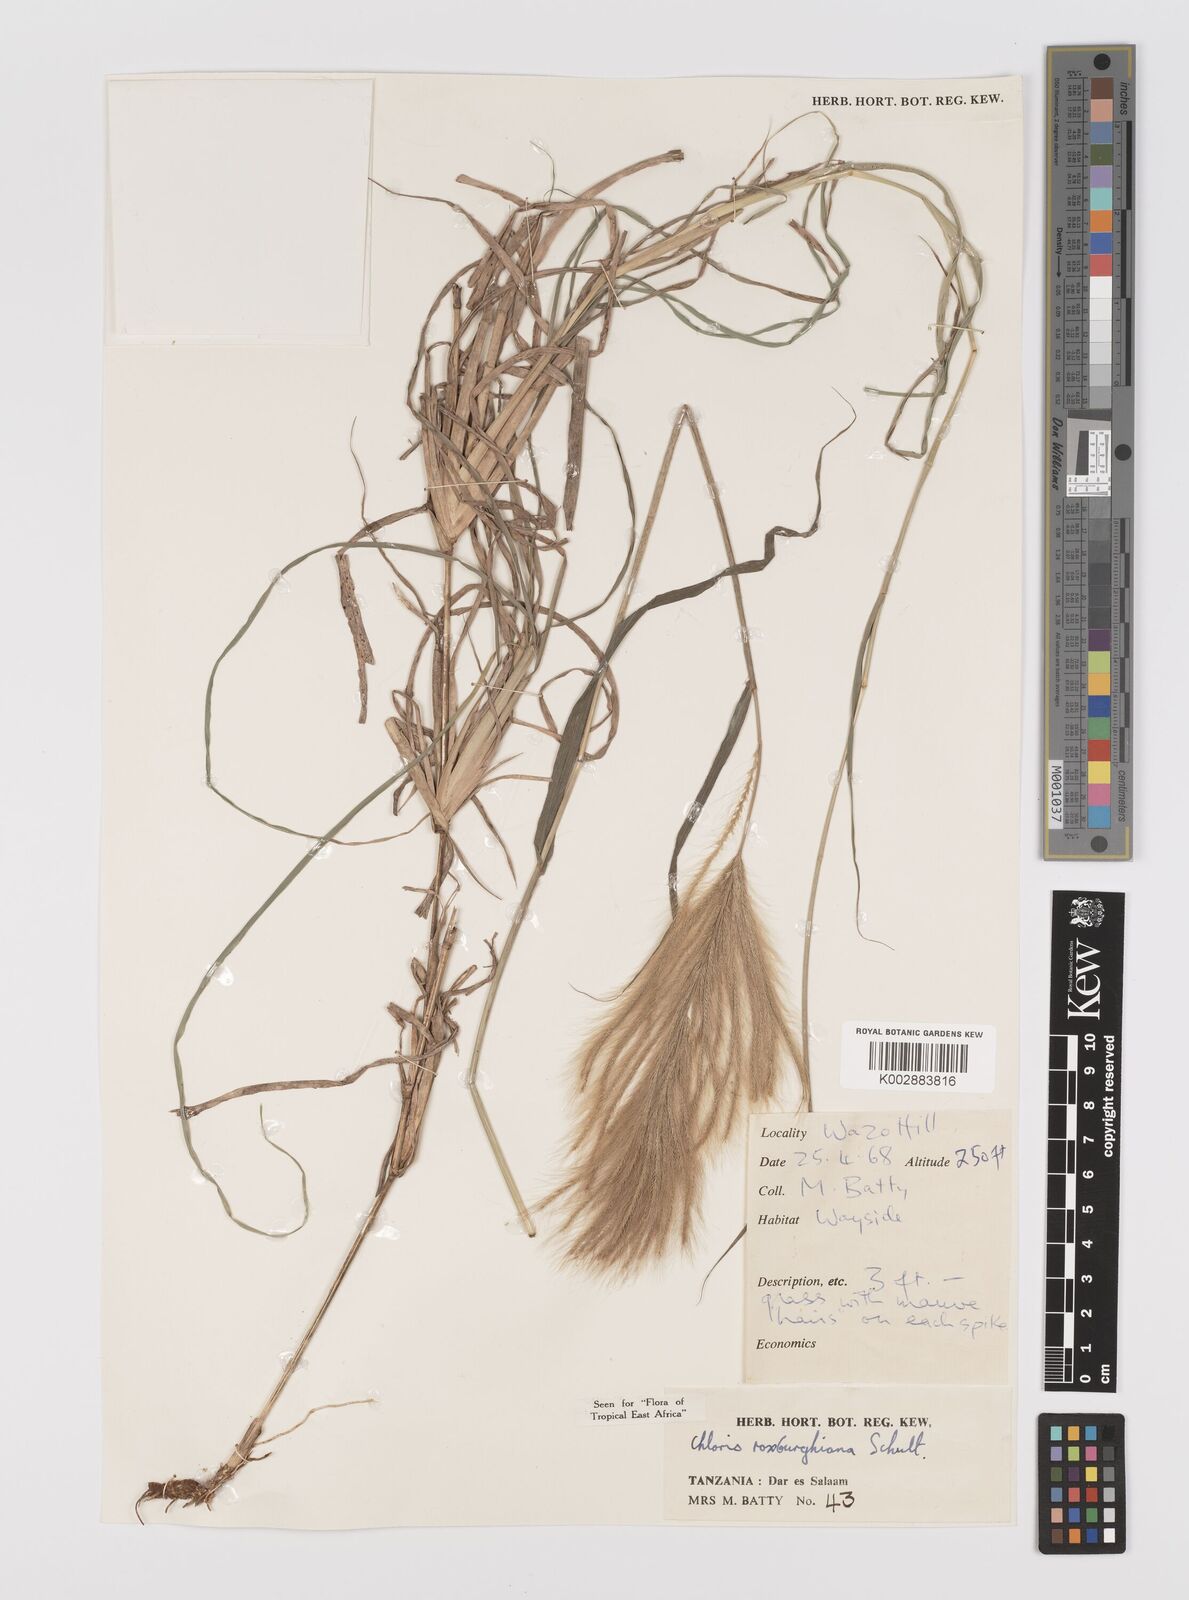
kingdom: Plantae
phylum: Tracheophyta
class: Liliopsida
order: Poales
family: Poaceae
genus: Tetrapogon
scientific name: Tetrapogon roxburghiana
